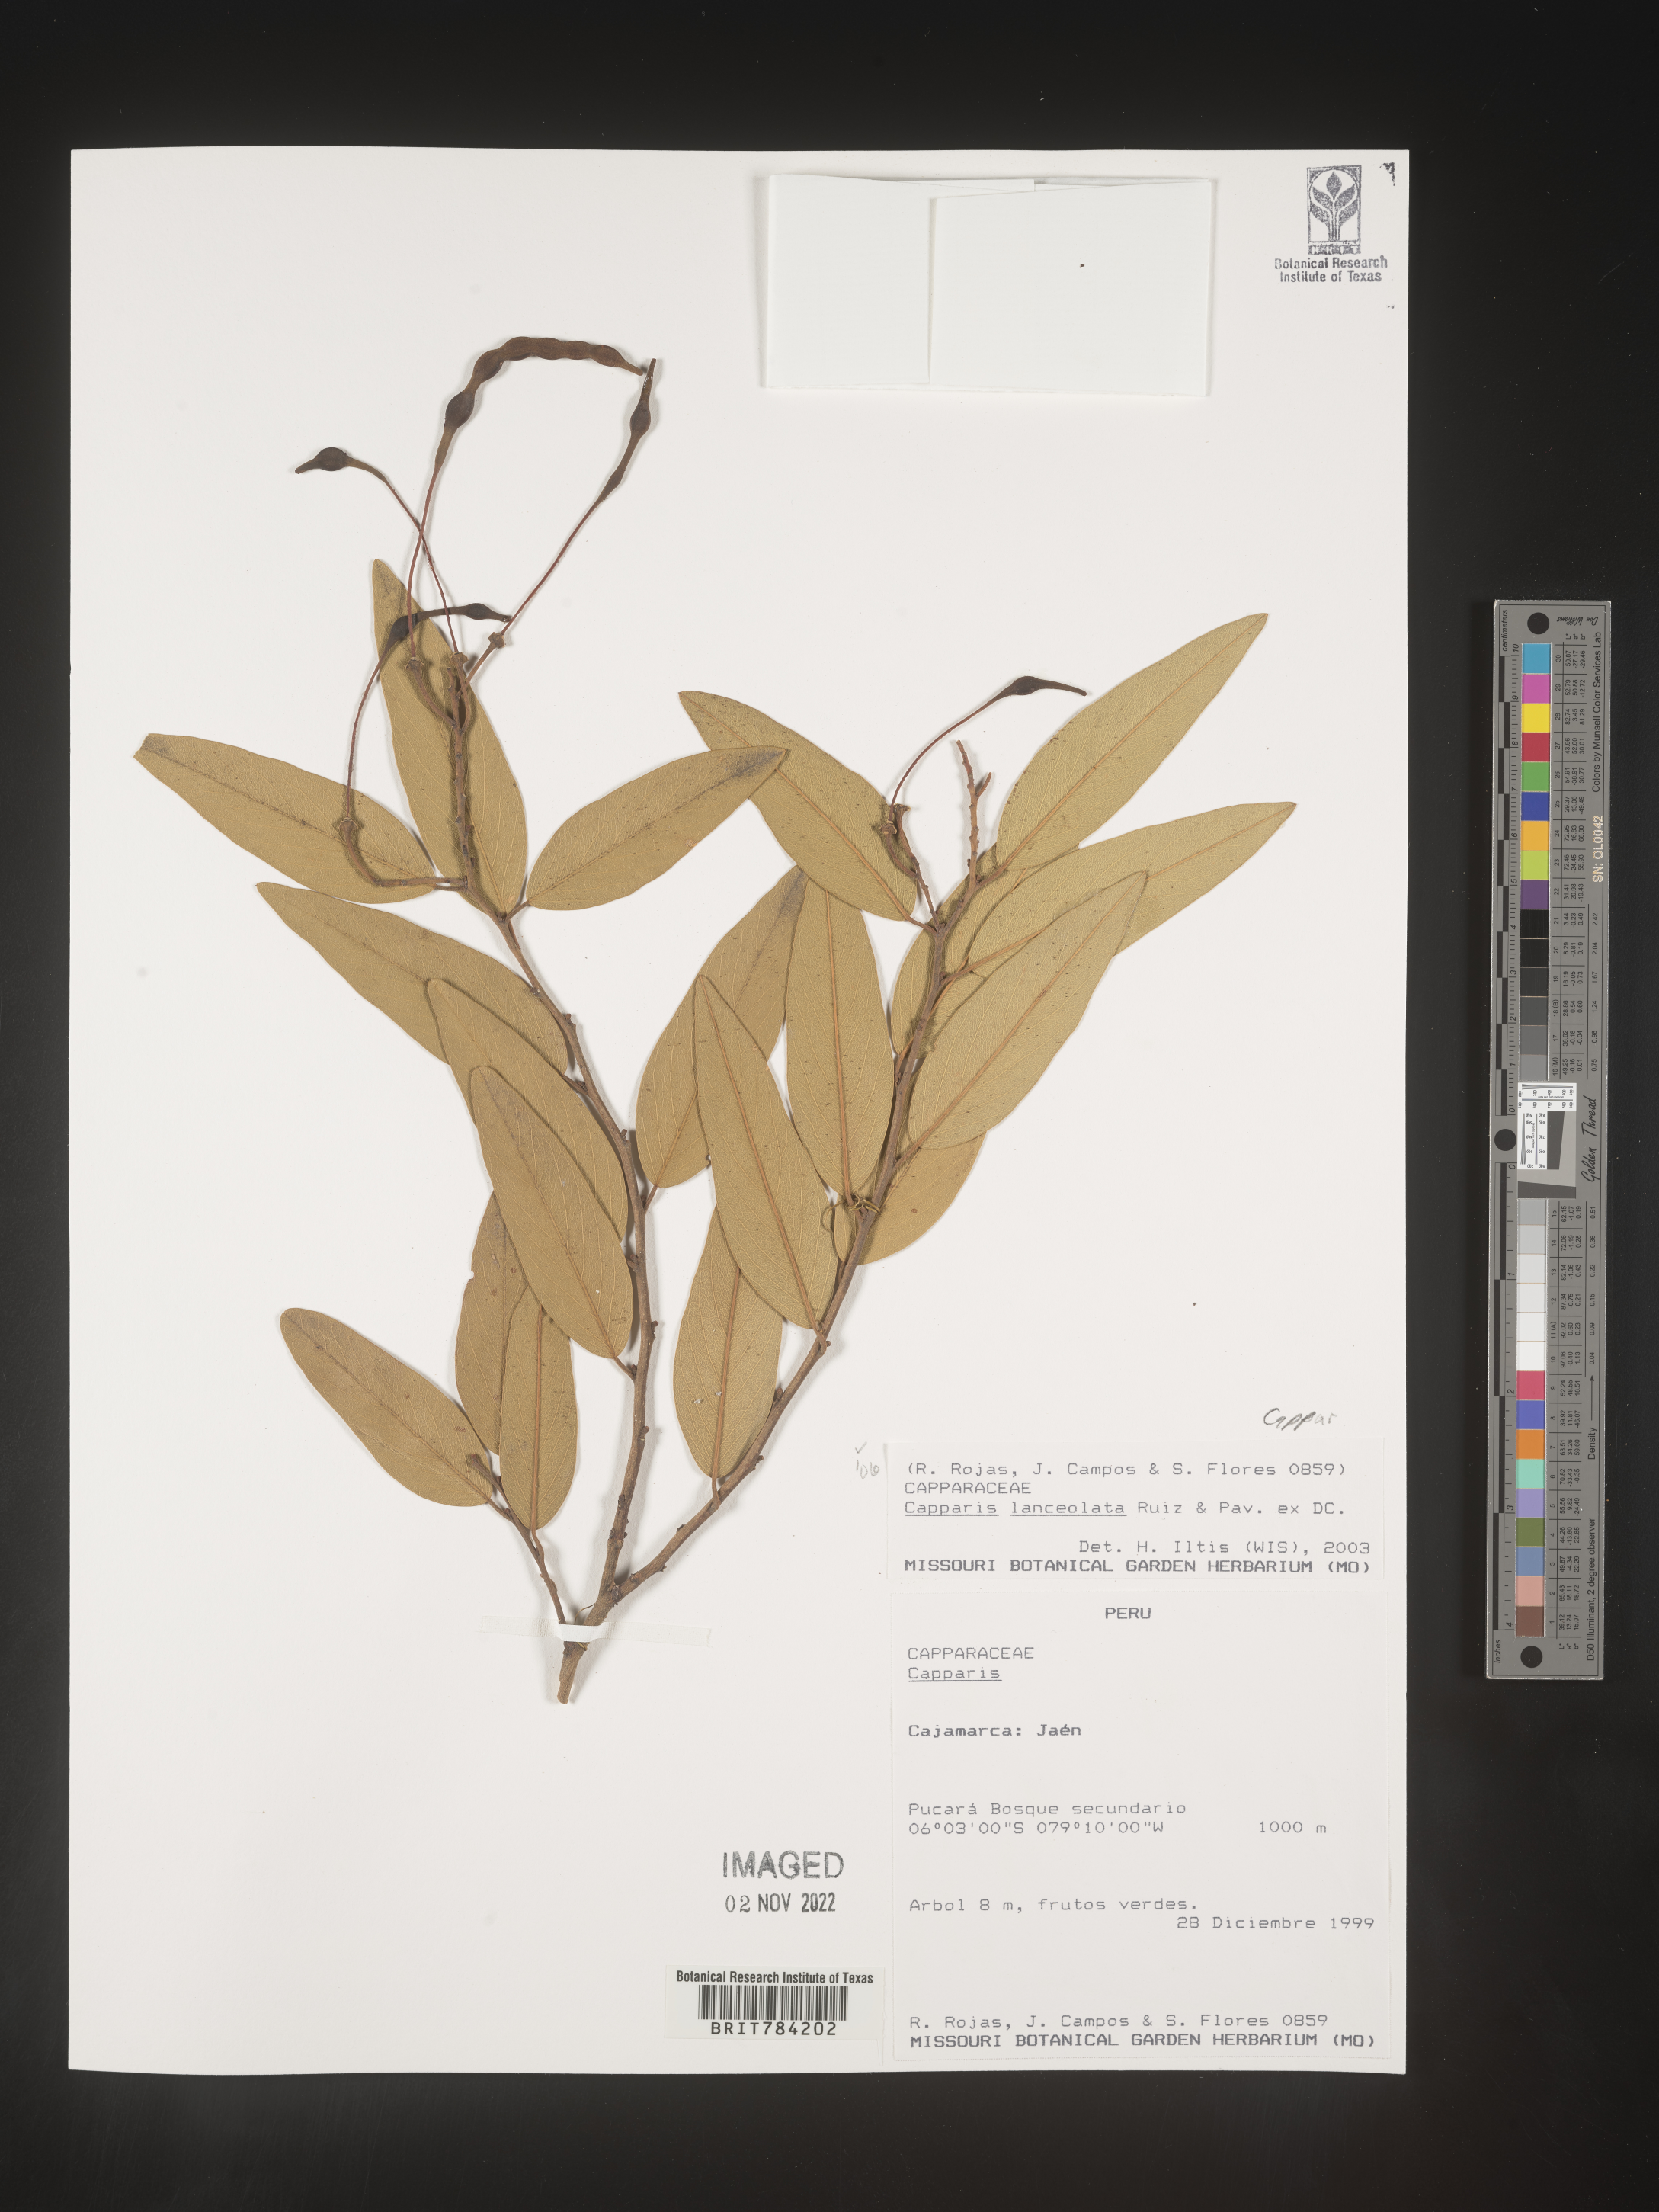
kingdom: Plantae
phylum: Tracheophyta
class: Magnoliopsida
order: Brassicales
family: Capparaceae
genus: Capparis
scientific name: Capparis
